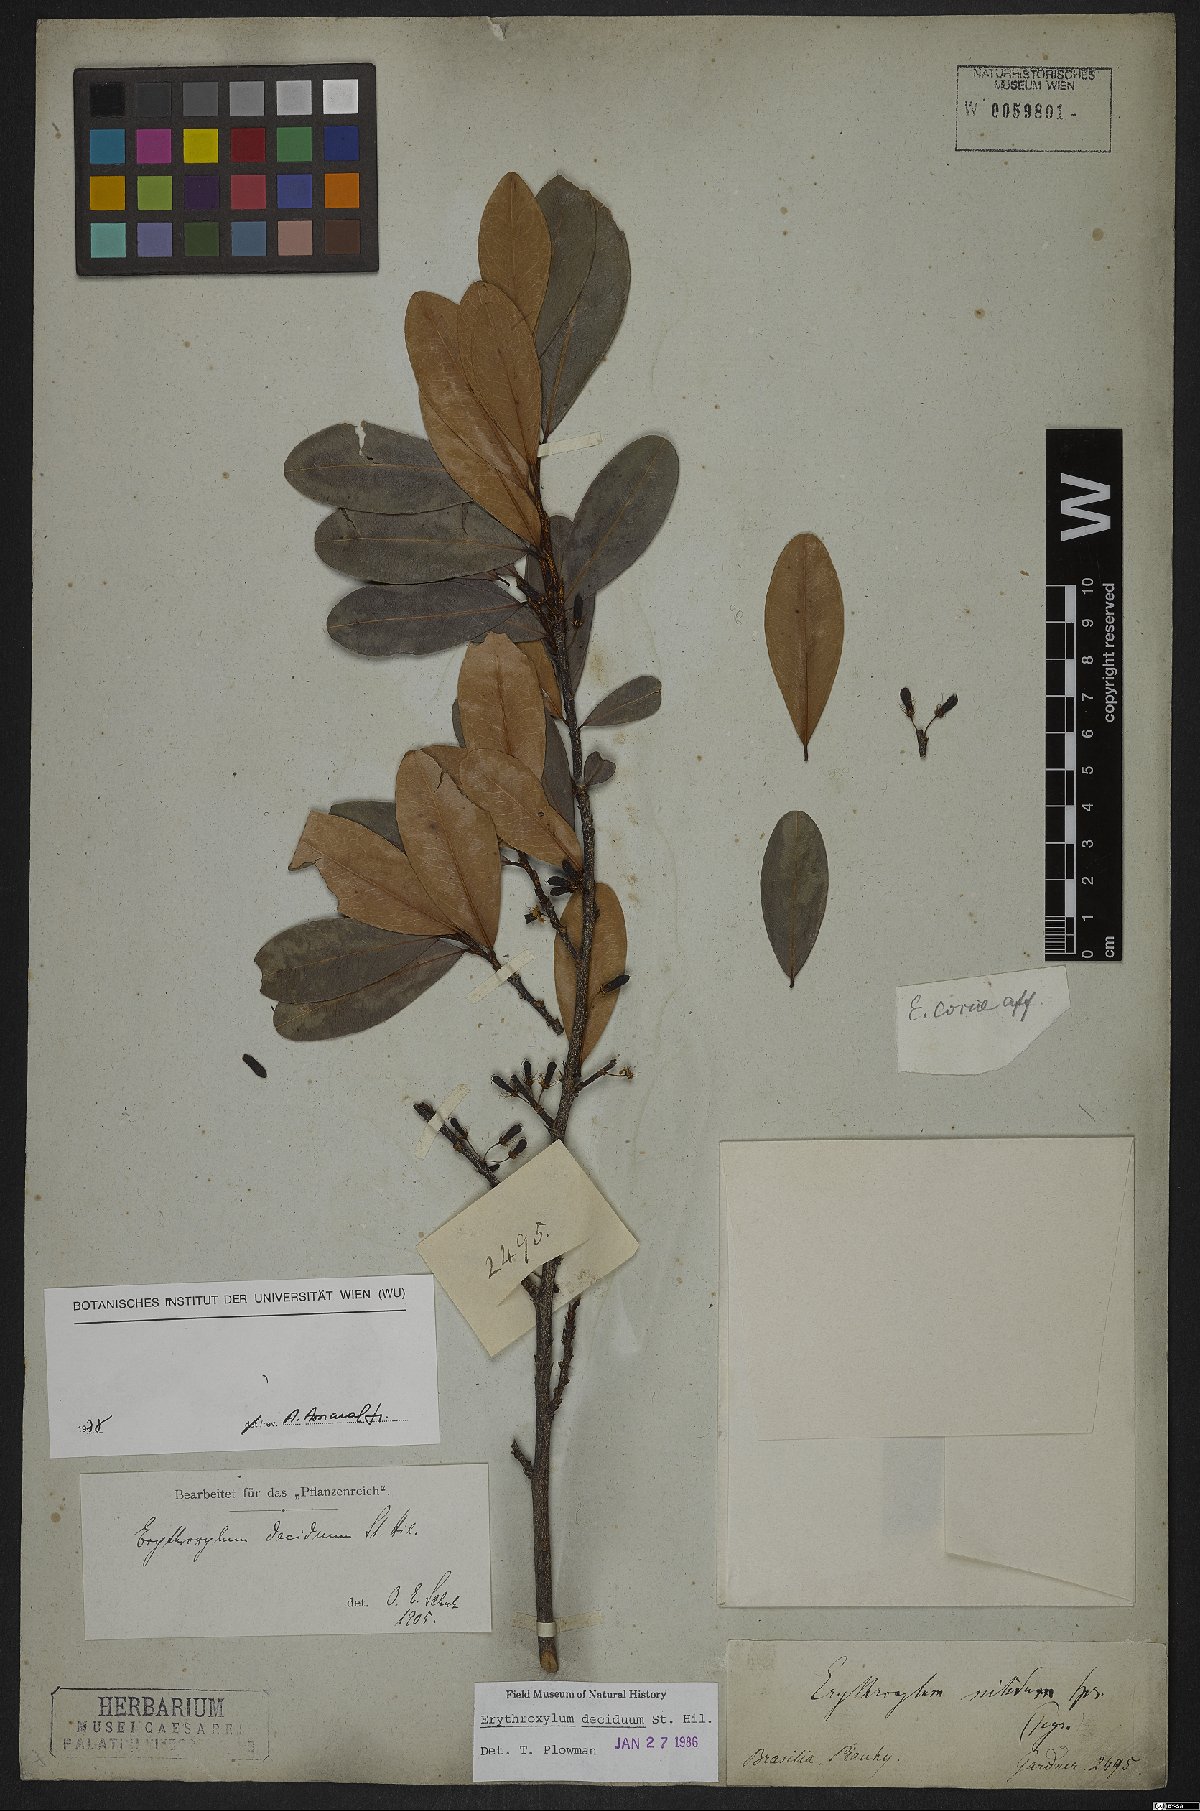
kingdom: Plantae
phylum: Tracheophyta
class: Magnoliopsida
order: Sapindales
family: Sapindaceae
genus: Sapindus
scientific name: Sapindus saponaria
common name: Wingleaf soapberry
